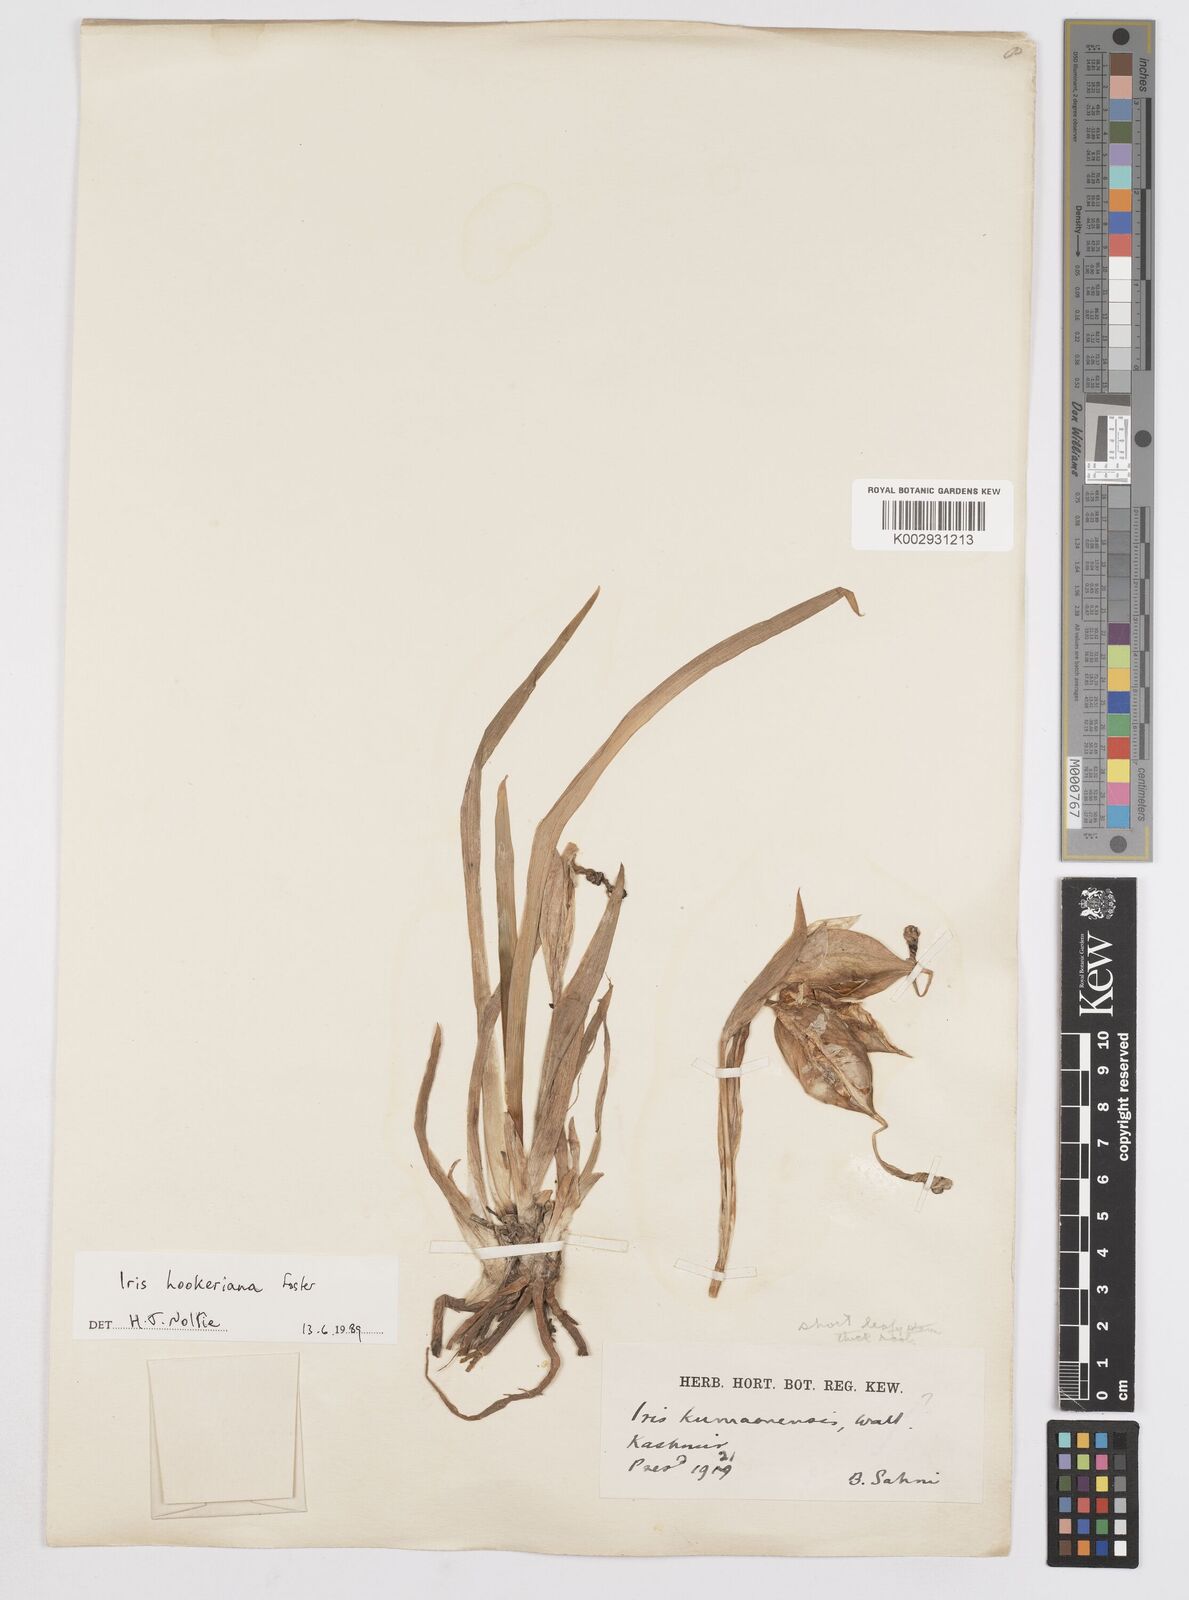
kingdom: Plantae
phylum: Tracheophyta
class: Liliopsida
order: Asparagales
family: Iridaceae
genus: Iris
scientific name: Iris hookeriana
